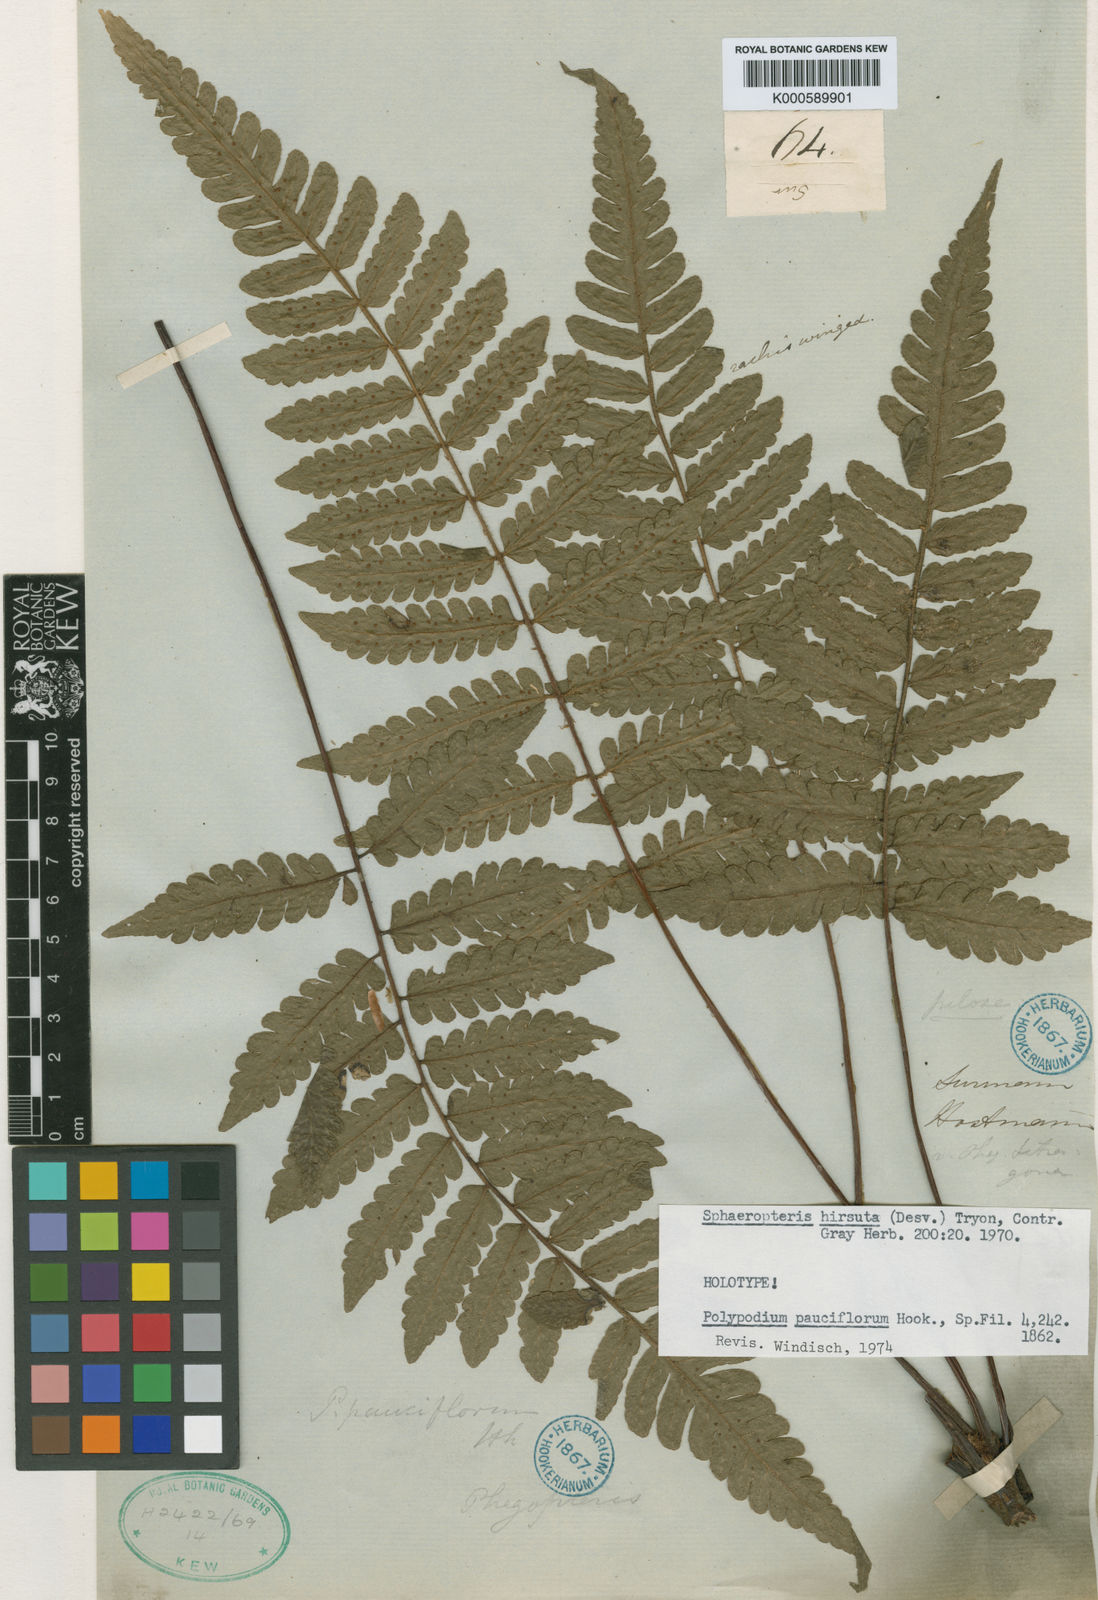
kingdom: Plantae
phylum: Tracheophyta
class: Polypodiopsida
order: Cyatheales
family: Cyatheaceae
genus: Cyathea
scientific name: Cyathea surinamensis
